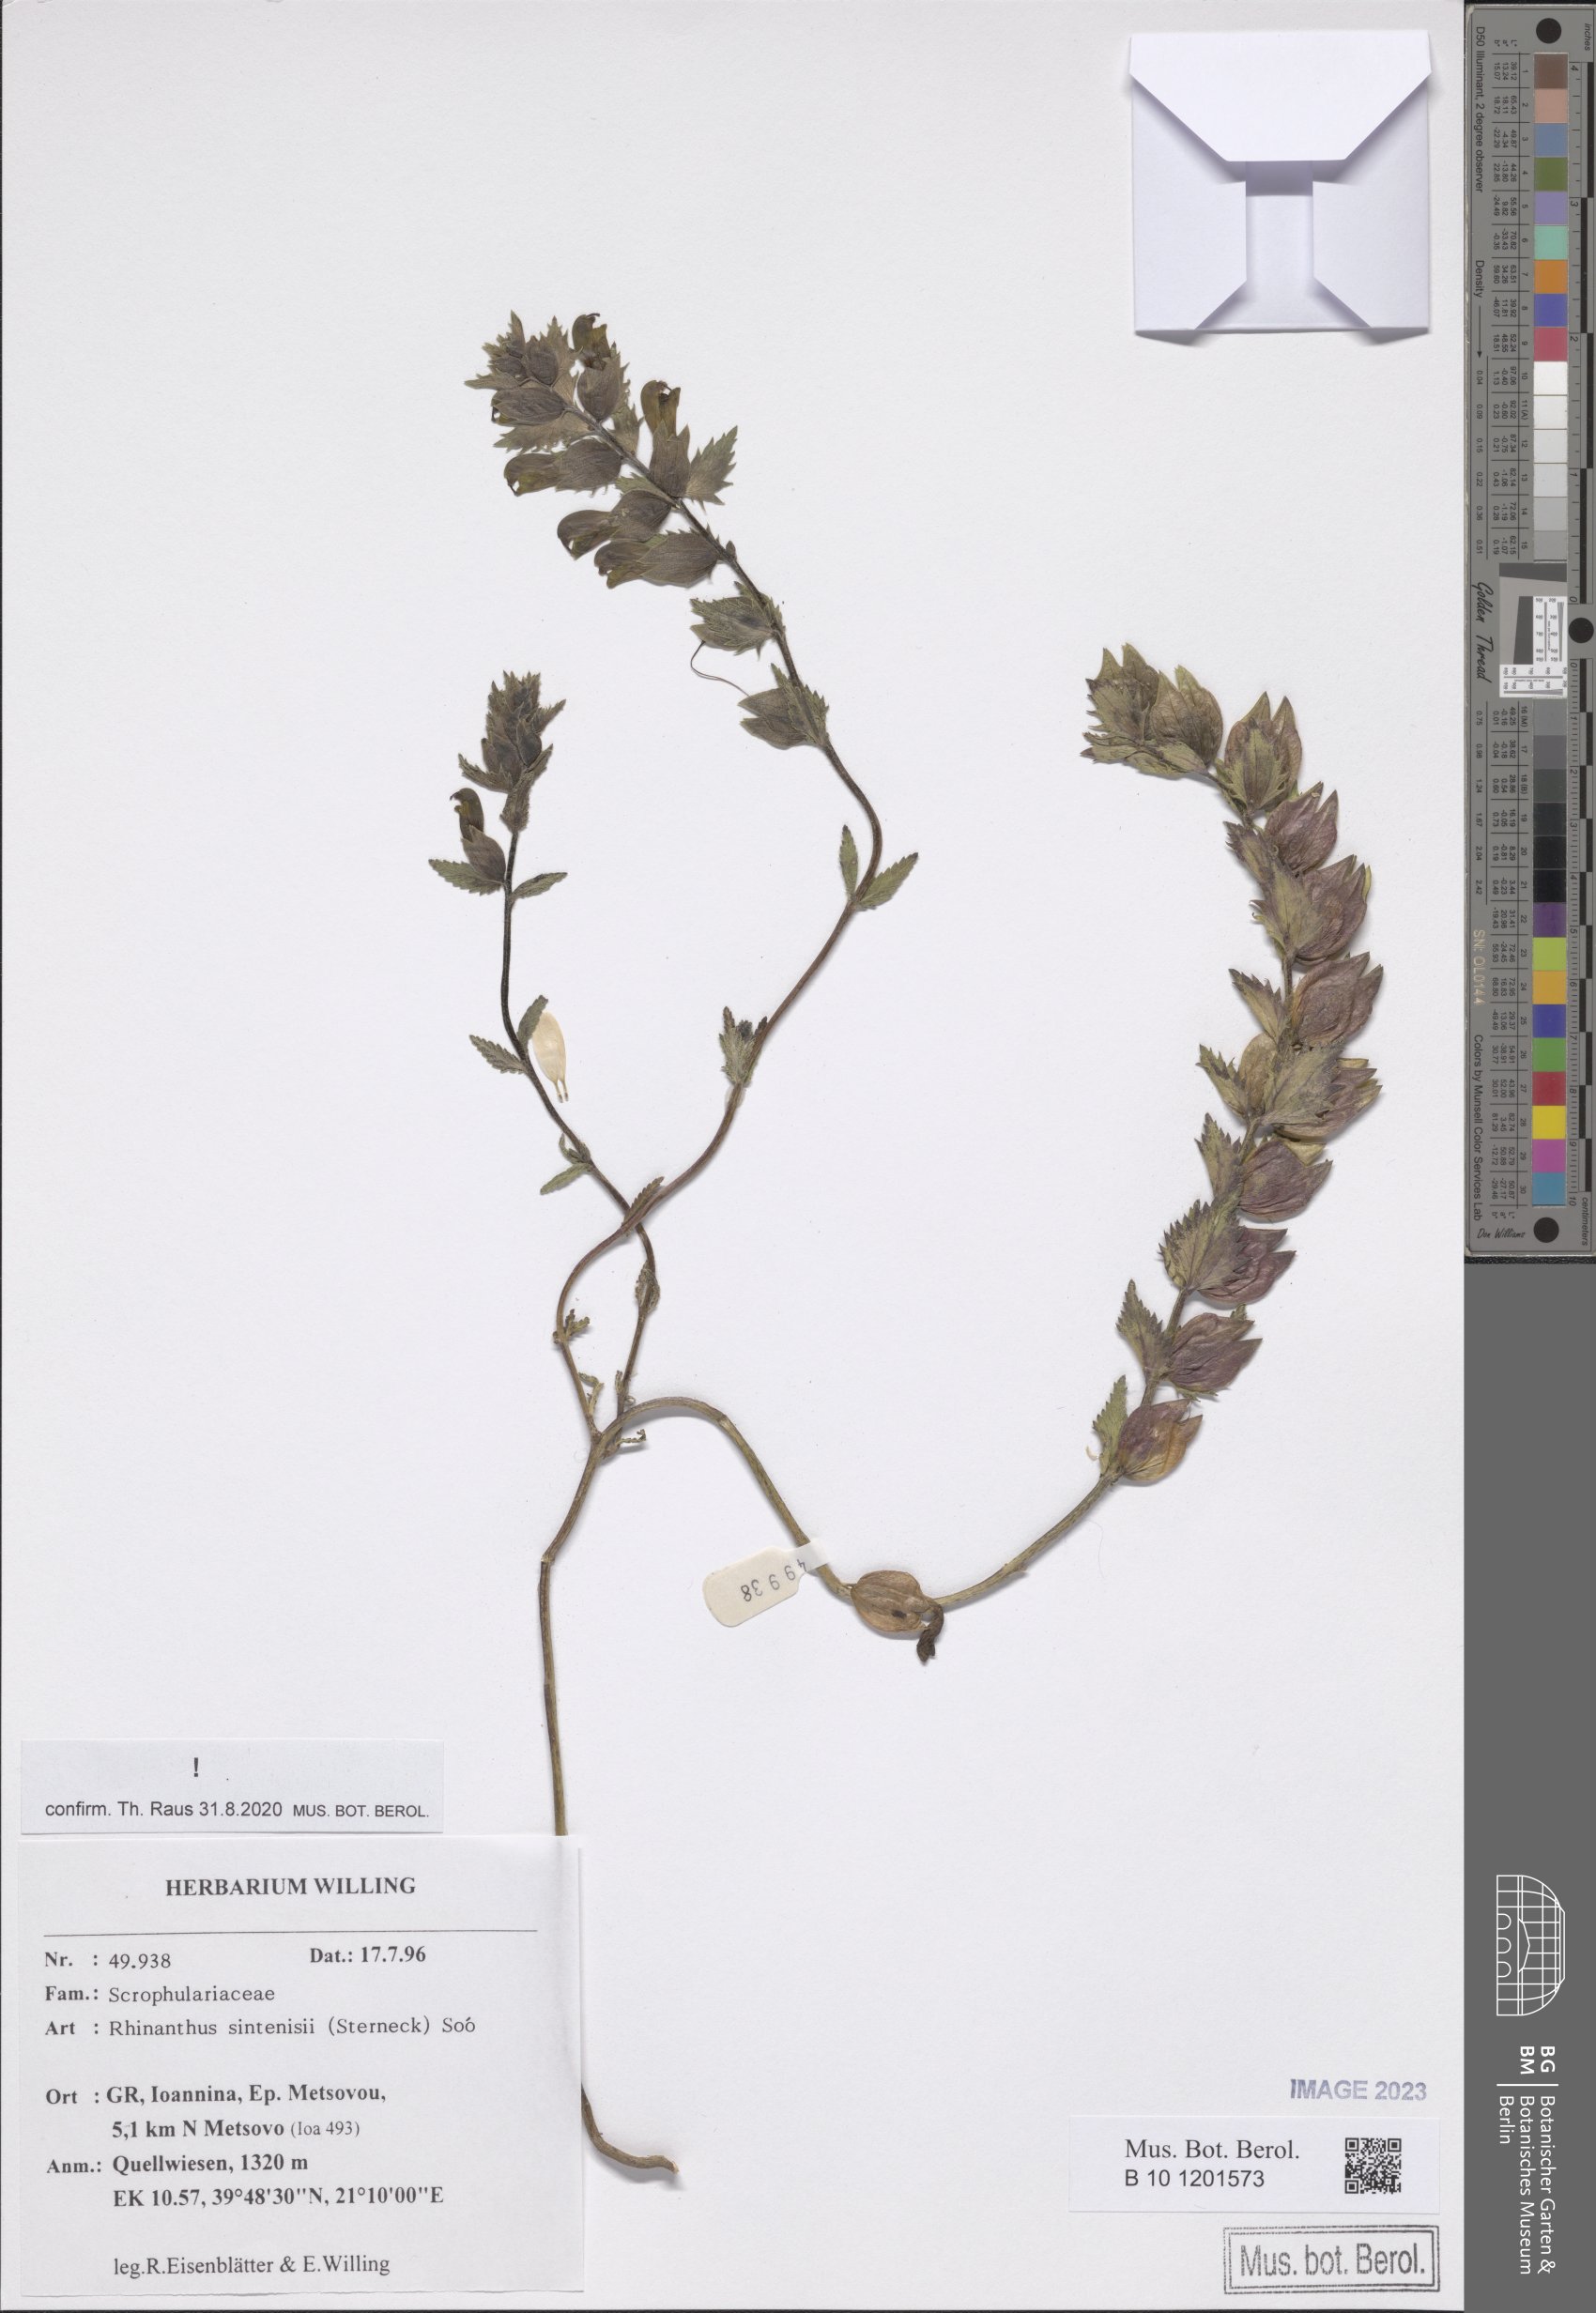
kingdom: Plantae
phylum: Tracheophyta
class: Magnoliopsida
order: Lamiales
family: Orobanchaceae
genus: Rhinanthus
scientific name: Rhinanthus sintenisii
